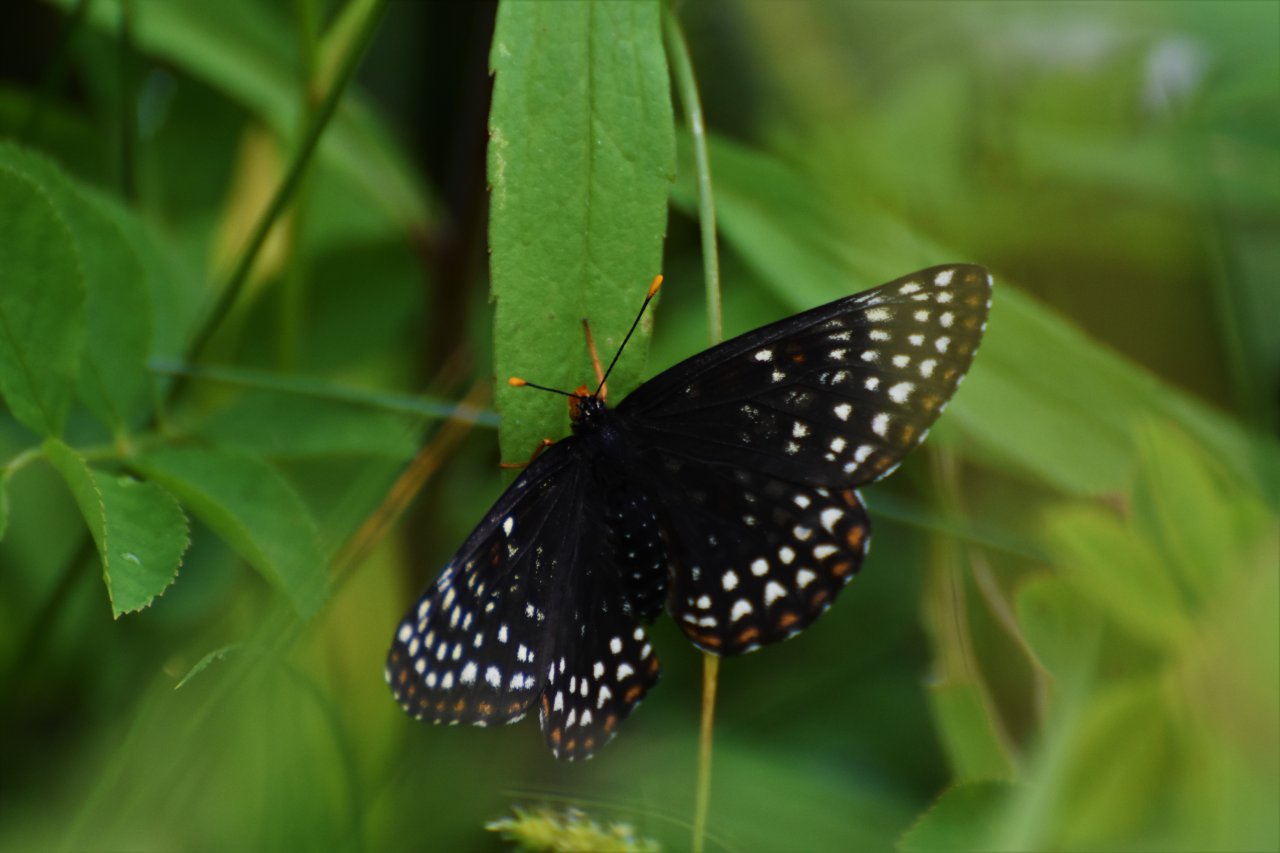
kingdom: Animalia
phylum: Arthropoda
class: Insecta
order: Lepidoptera
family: Nymphalidae
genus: Euphydryas
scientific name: Euphydryas phaeton
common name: Baltimore Checkerspot
